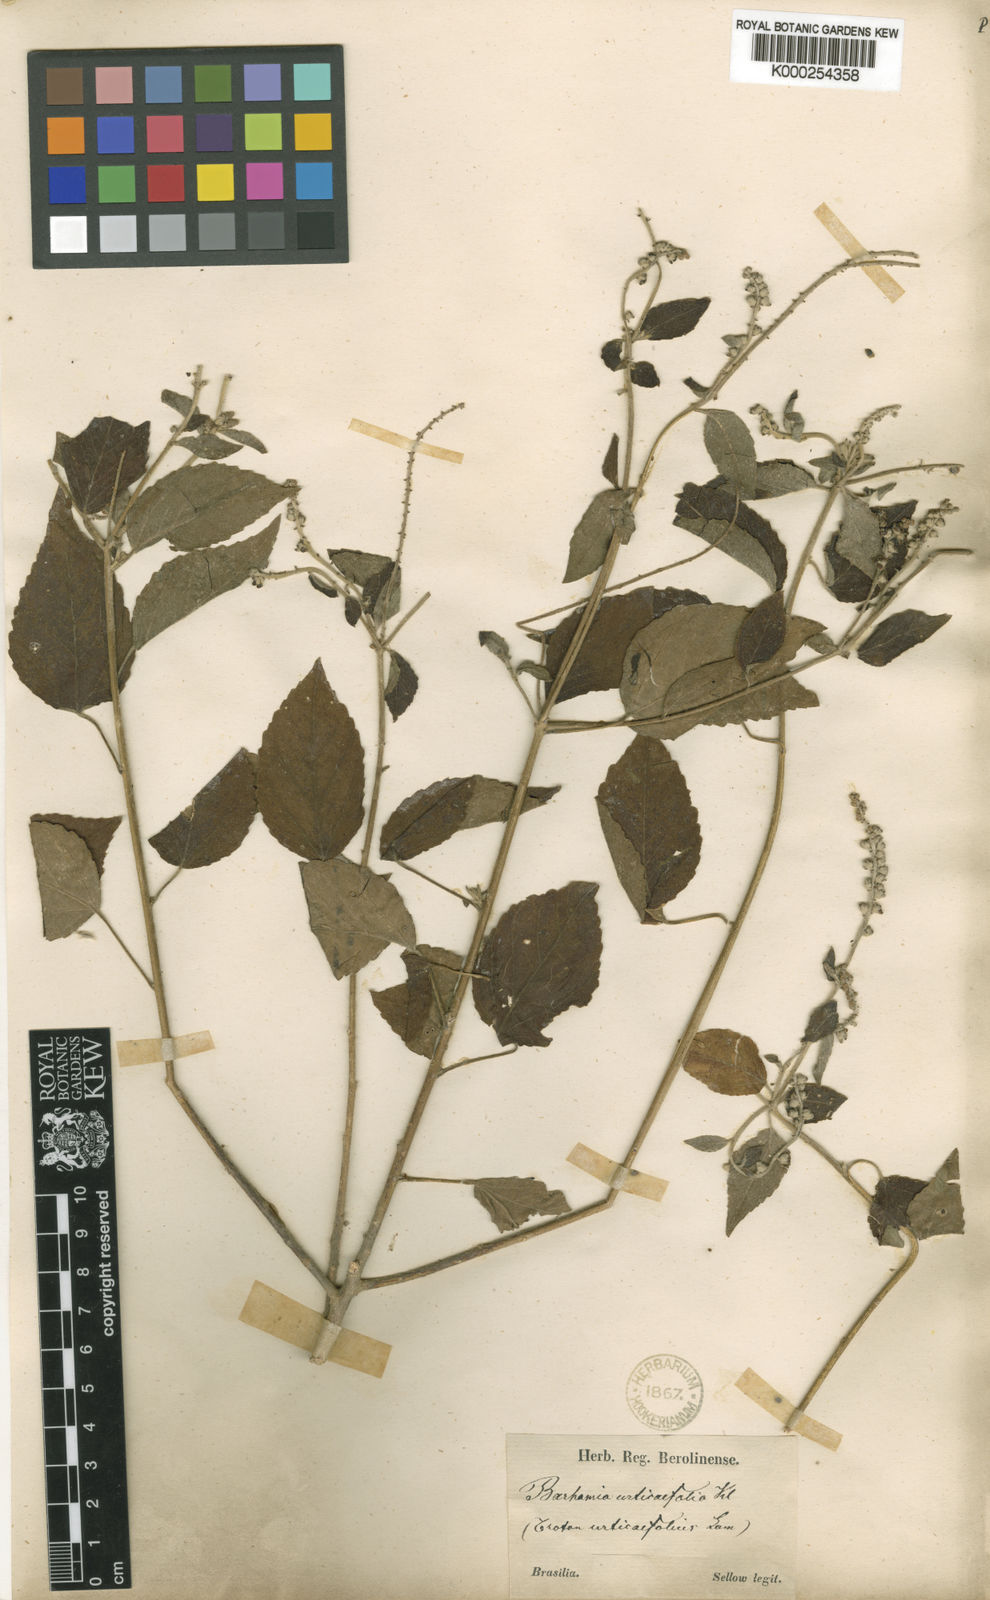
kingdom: Plantae
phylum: Tracheophyta
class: Magnoliopsida
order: Malpighiales
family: Euphorbiaceae
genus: Croton
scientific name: Croton urticifolius
